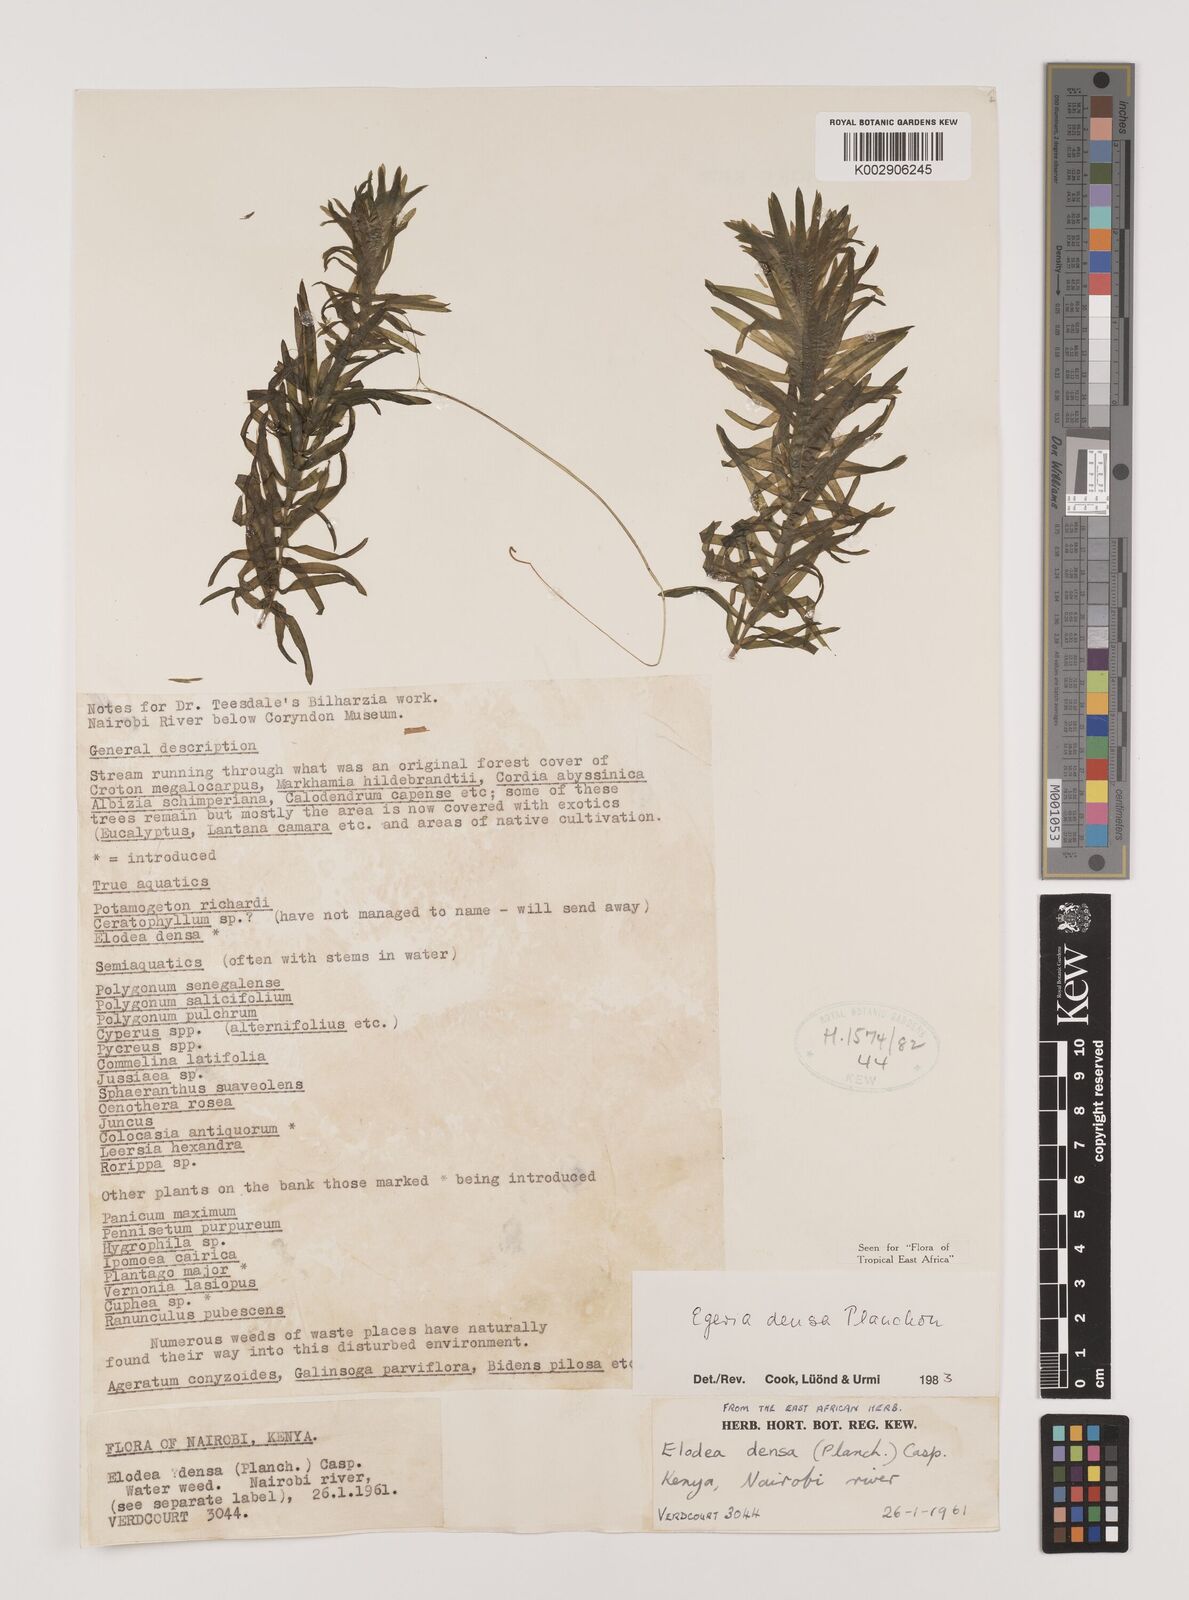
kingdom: Plantae
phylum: Tracheophyta
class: Liliopsida
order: Alismatales
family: Hydrocharitaceae
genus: Elodea
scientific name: Elodea densa
